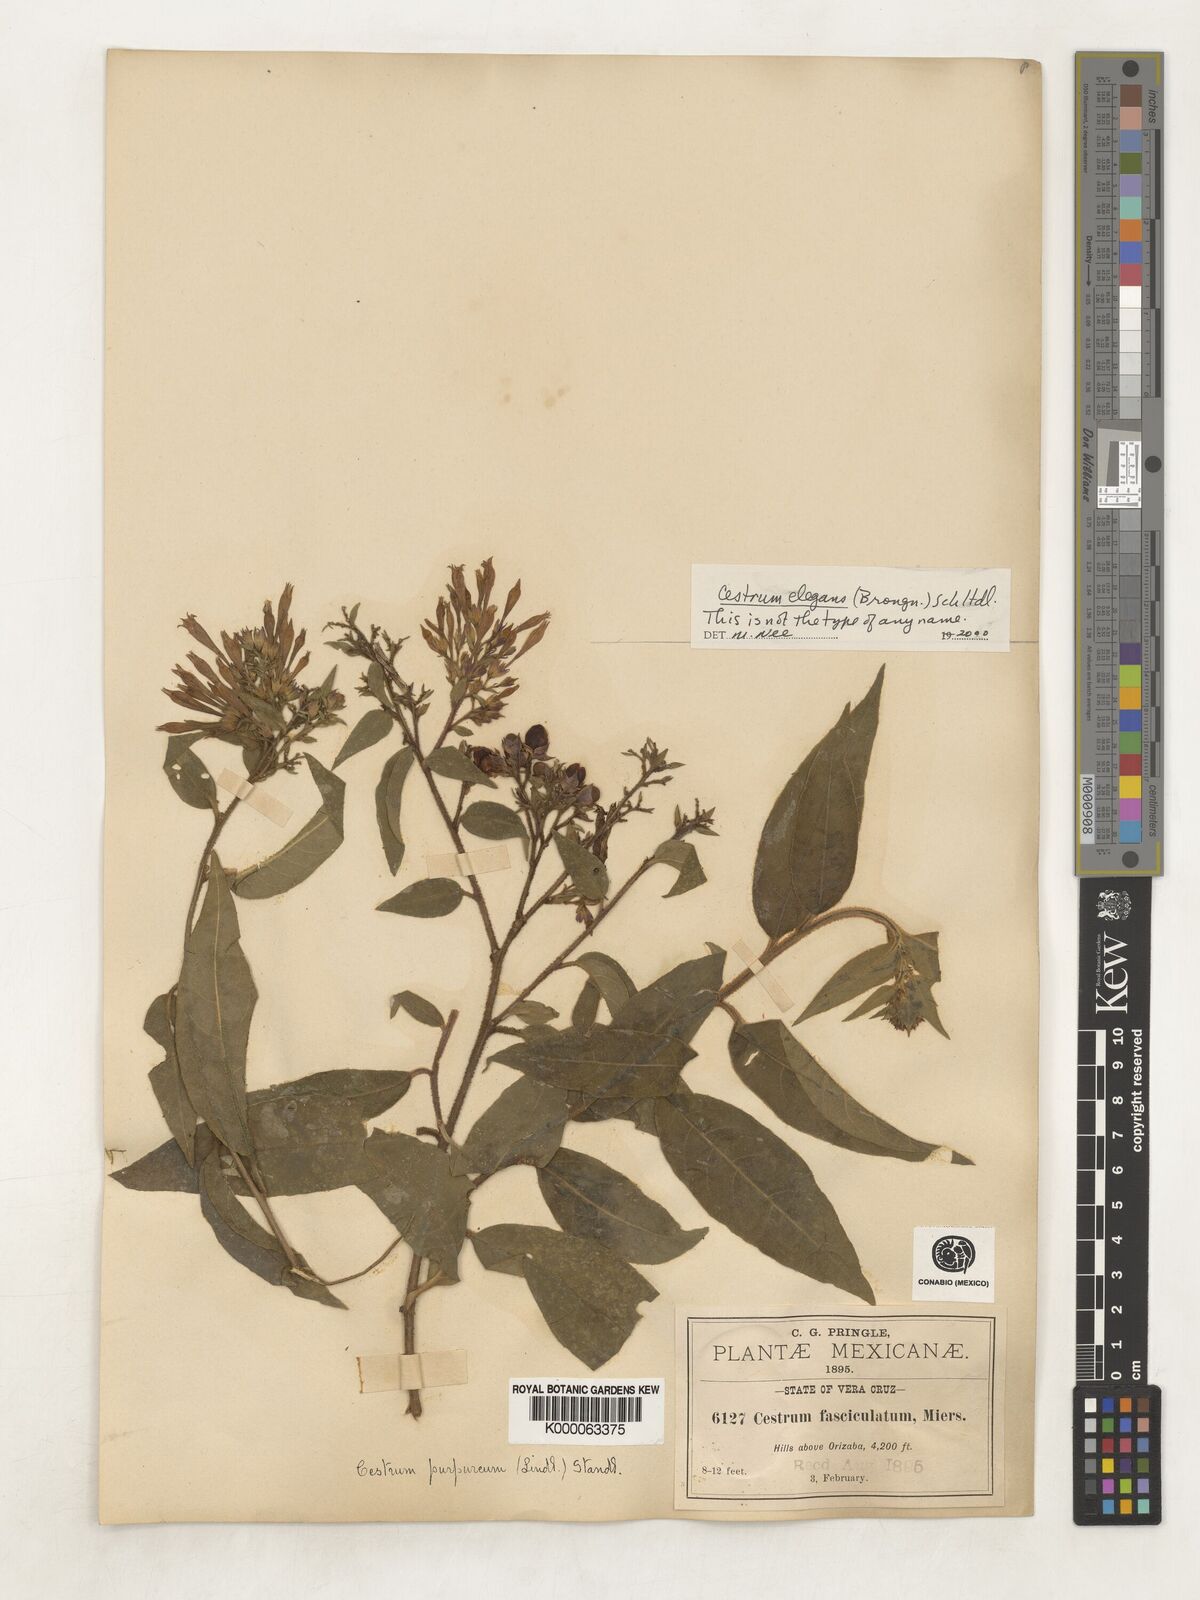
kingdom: Plantae
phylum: Tracheophyta
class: Magnoliopsida
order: Solanales
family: Solanaceae
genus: Cestrum
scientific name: Cestrum elegans
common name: Crimson cestrum
